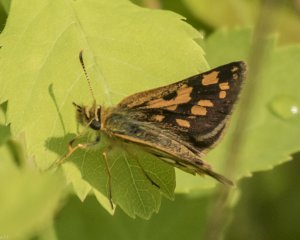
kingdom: Animalia
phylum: Arthropoda
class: Insecta
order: Lepidoptera
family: Hesperiidae
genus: Carterocephalus
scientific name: Carterocephalus palaemon
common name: Chequered Skipper
